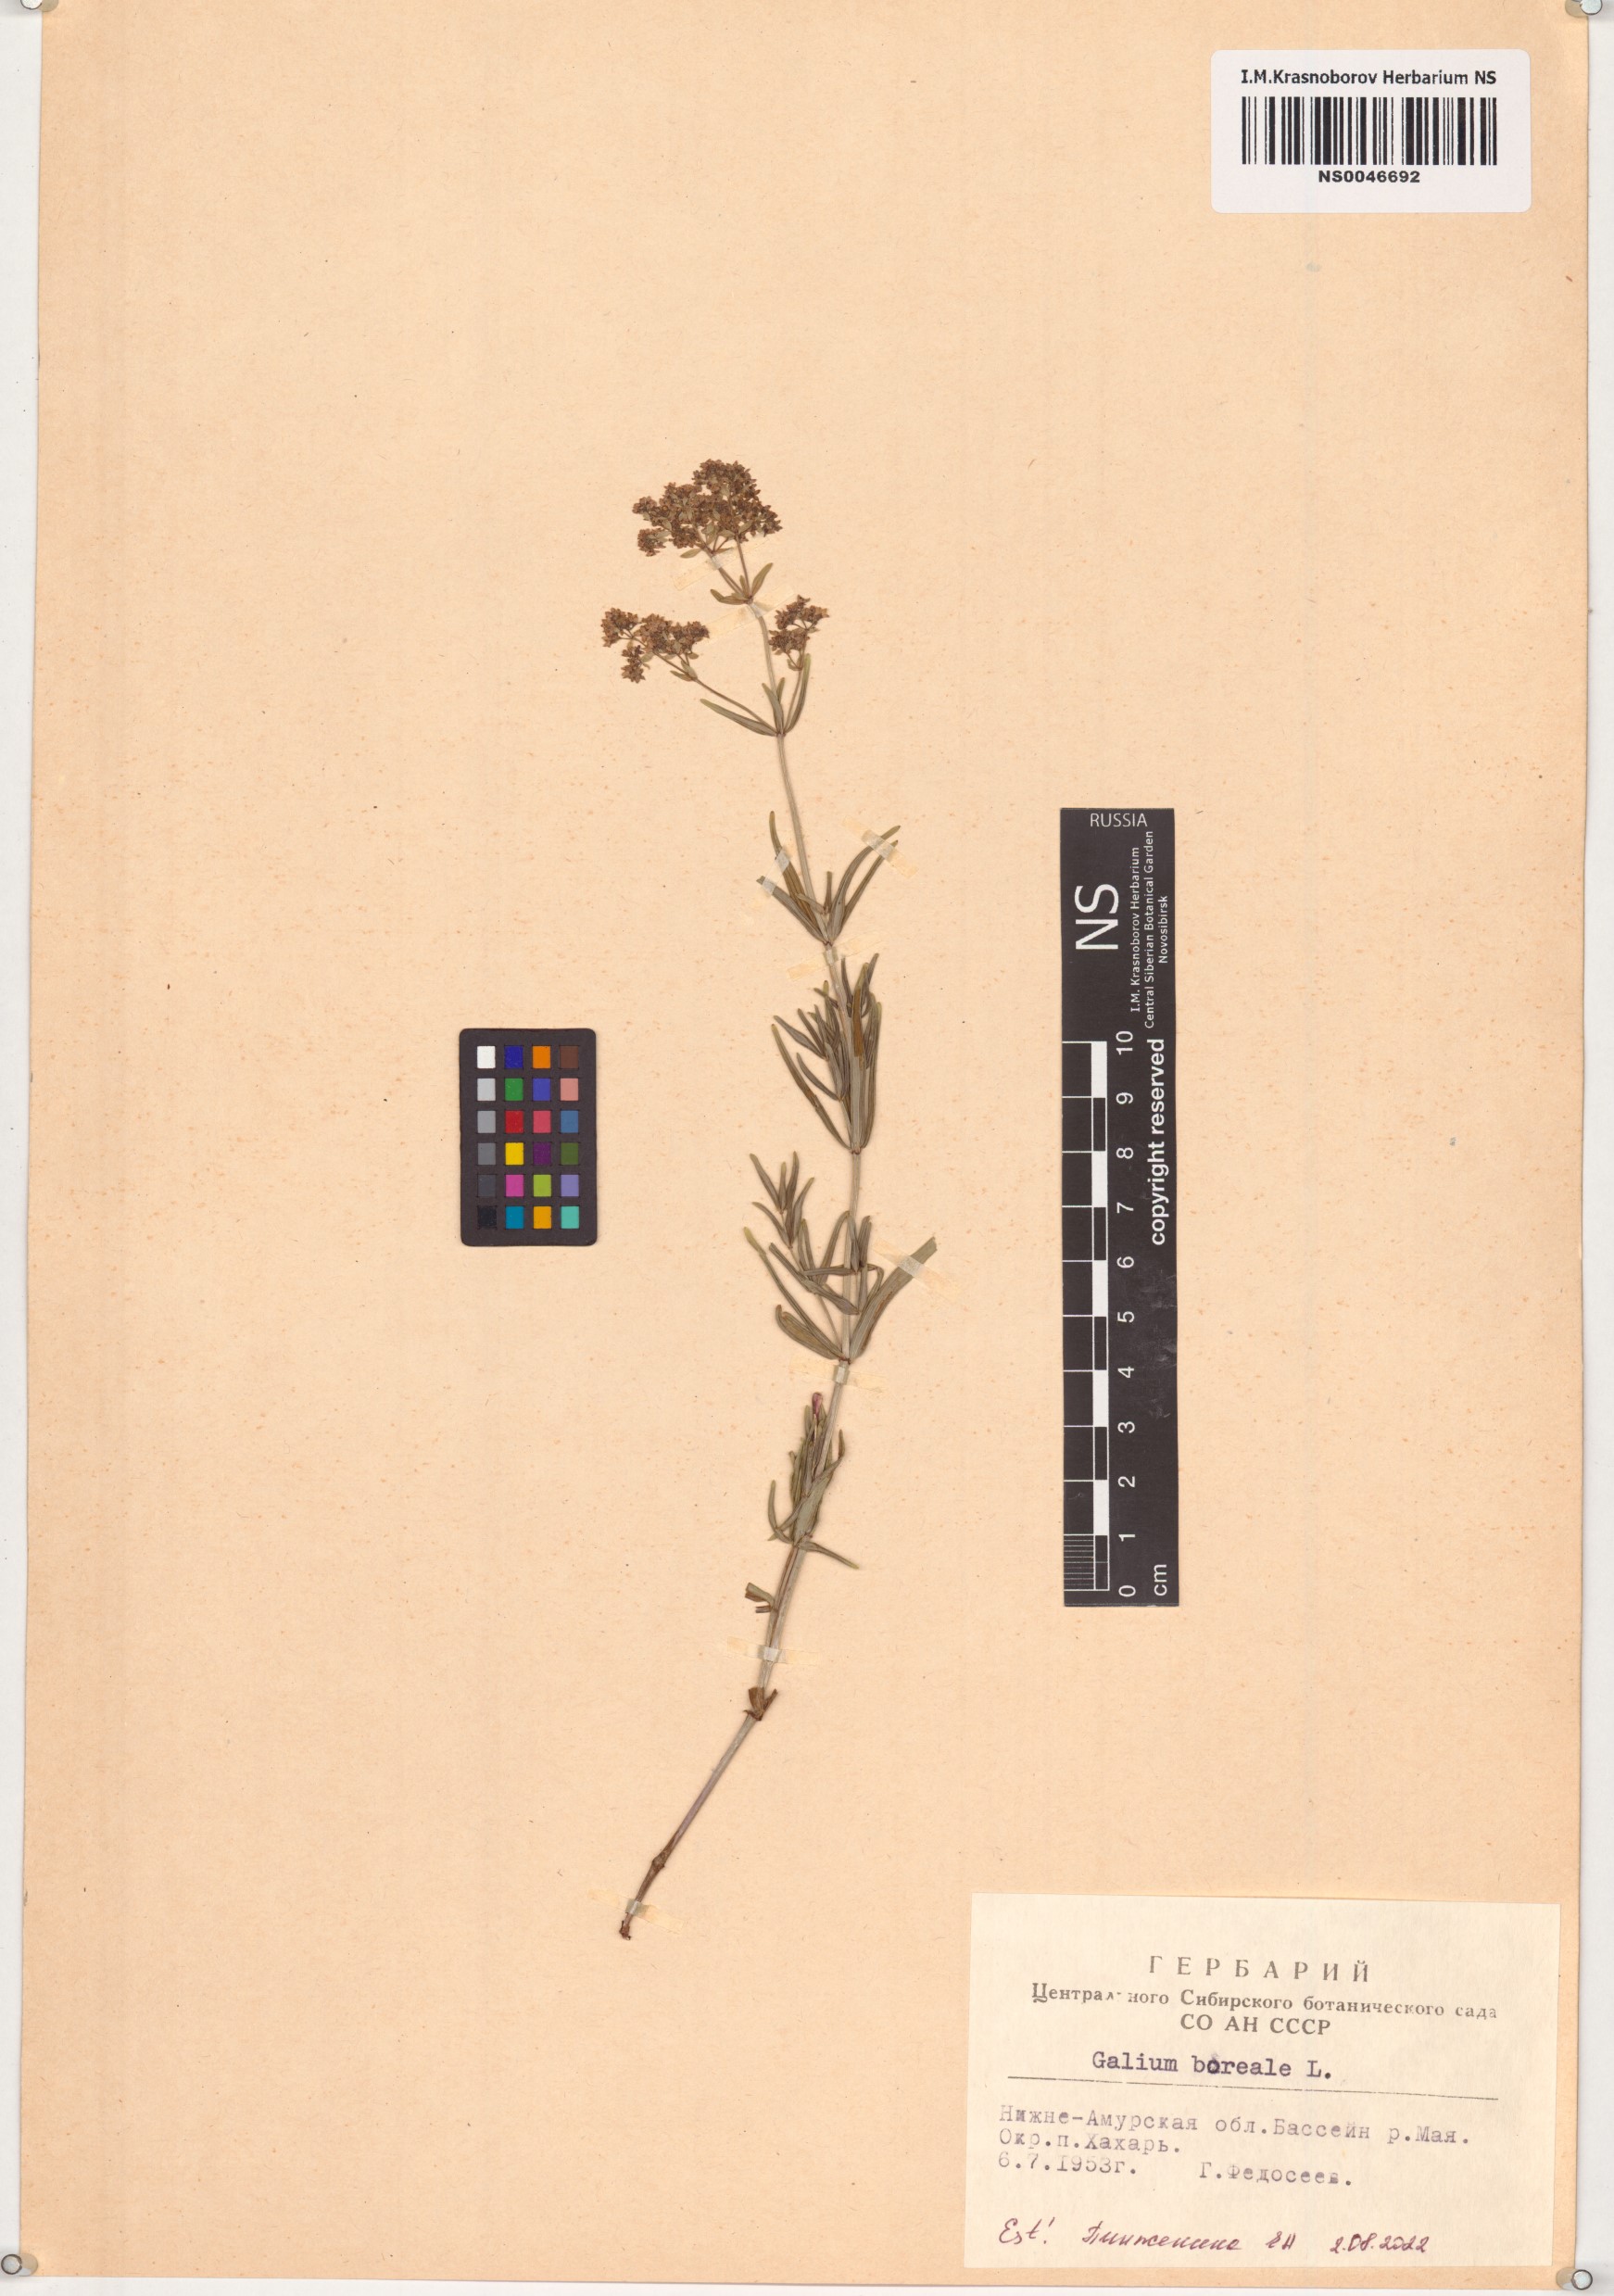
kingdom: Plantae
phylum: Tracheophyta
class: Magnoliopsida
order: Gentianales
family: Rubiaceae
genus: Galium
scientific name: Galium boreale
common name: Northern bedstraw
